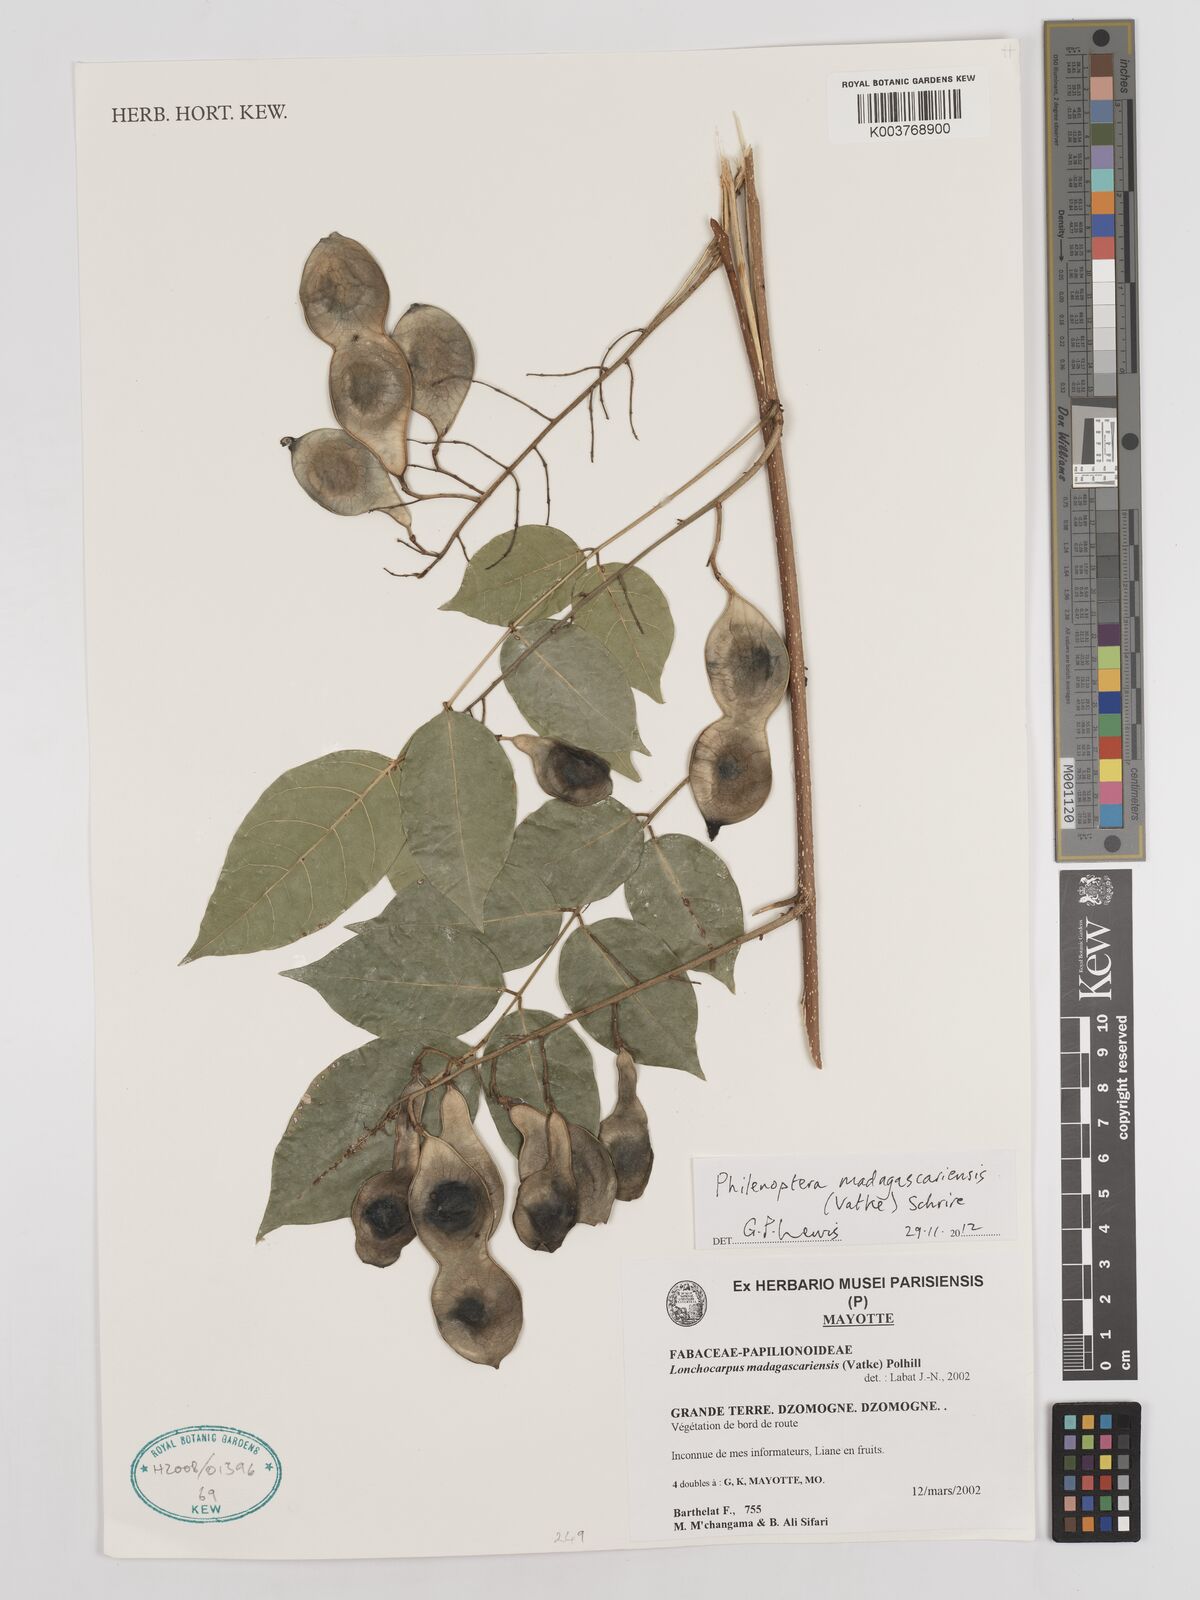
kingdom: Plantae
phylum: Tracheophyta
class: Magnoliopsida
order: Fabales
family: Fabaceae
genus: Lonchocarpus
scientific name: Lonchocarpus madagascariensis
